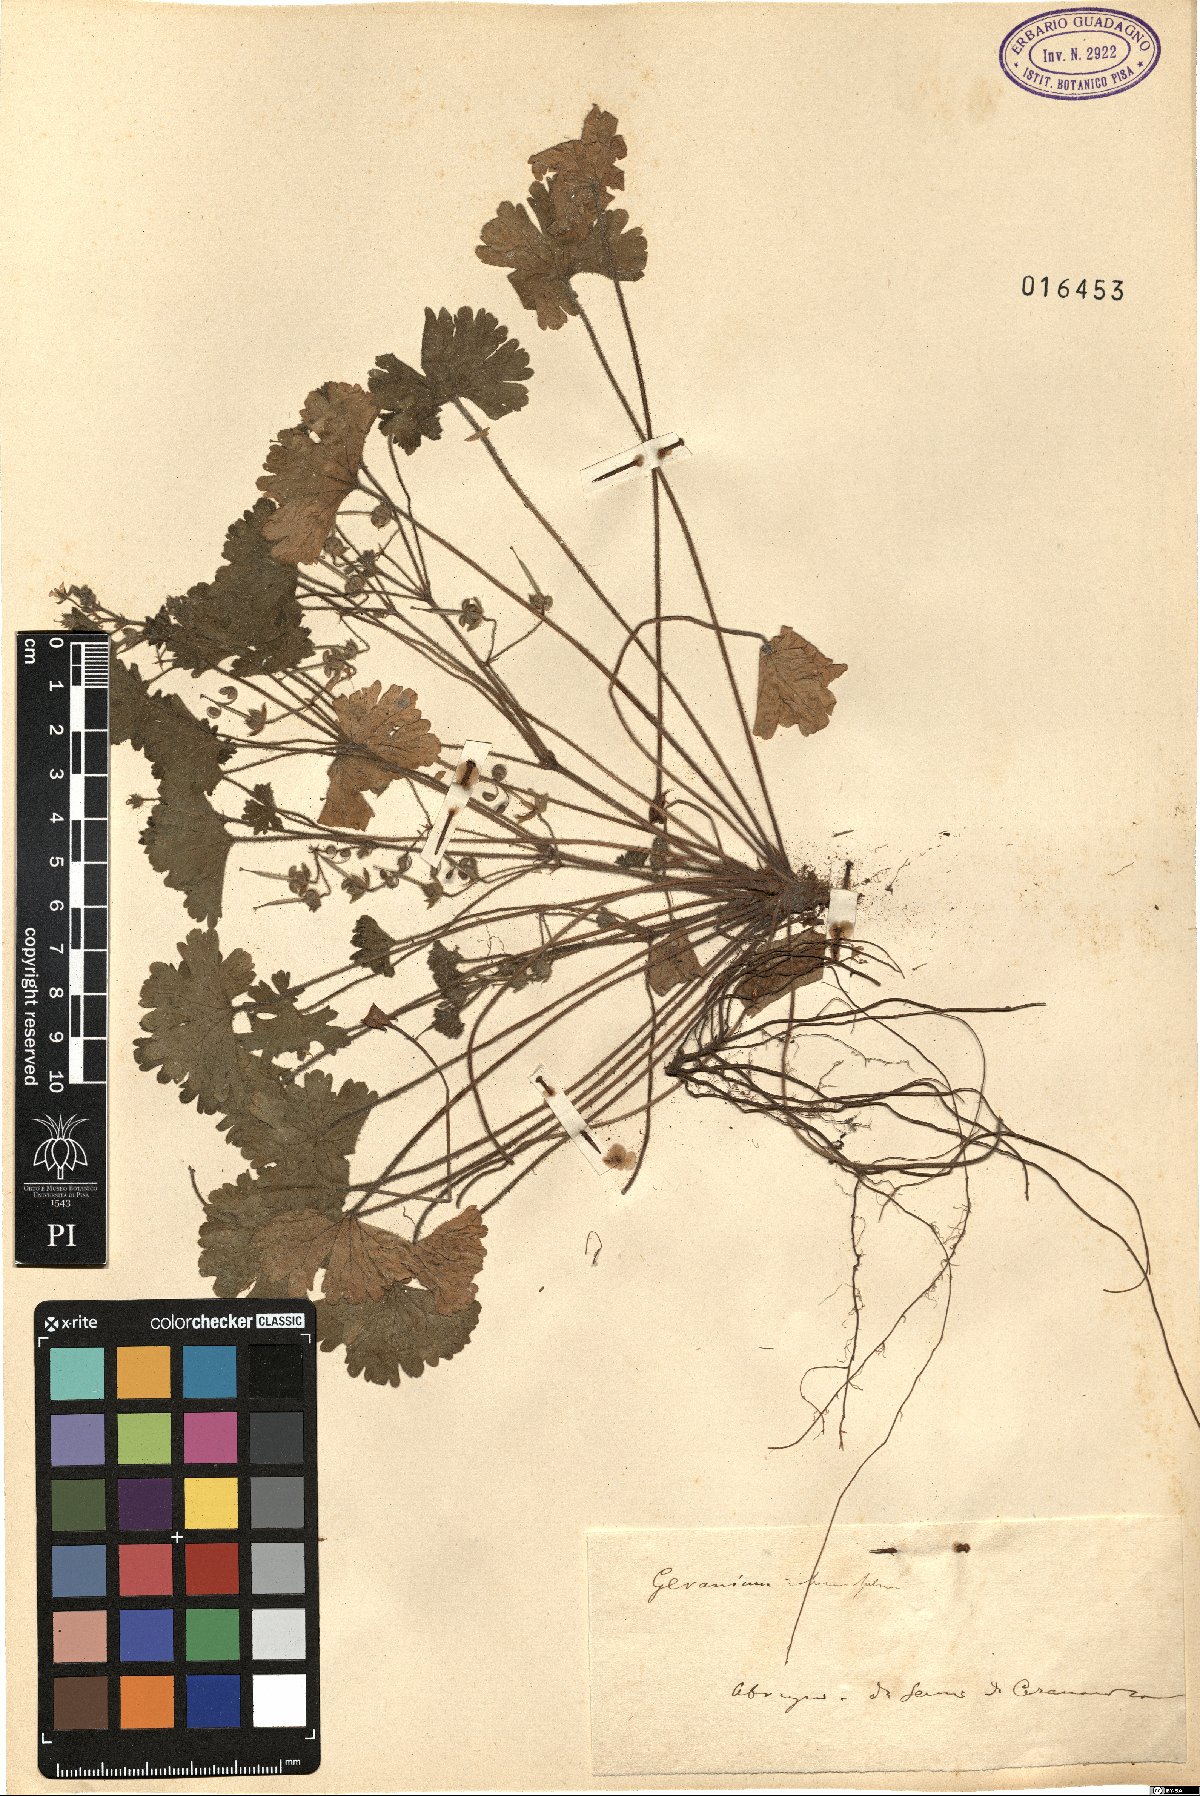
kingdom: Plantae
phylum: Tracheophyta
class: Magnoliopsida
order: Geraniales
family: Geraniaceae
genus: Geranium
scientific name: Geranium rotundifolium
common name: Round-leaved crane's-bill
